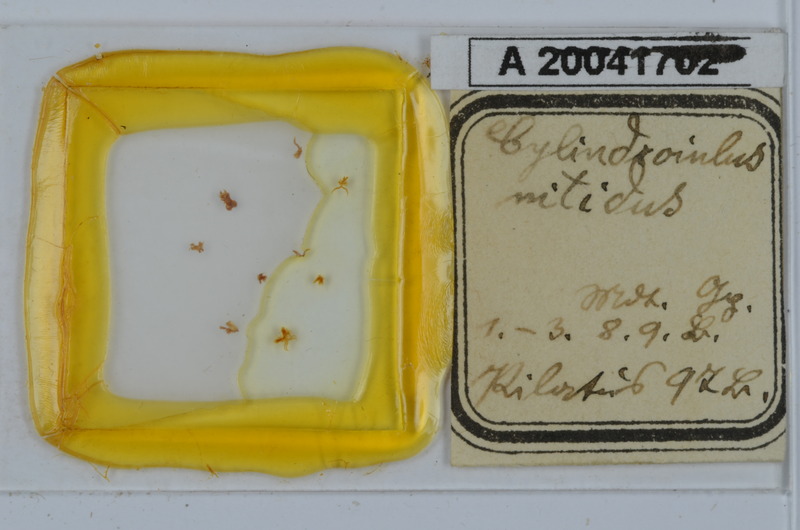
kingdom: Animalia
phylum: Arthropoda
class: Diplopoda
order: Julida
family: Julidae
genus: Allajulus
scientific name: Allajulus nitidus
